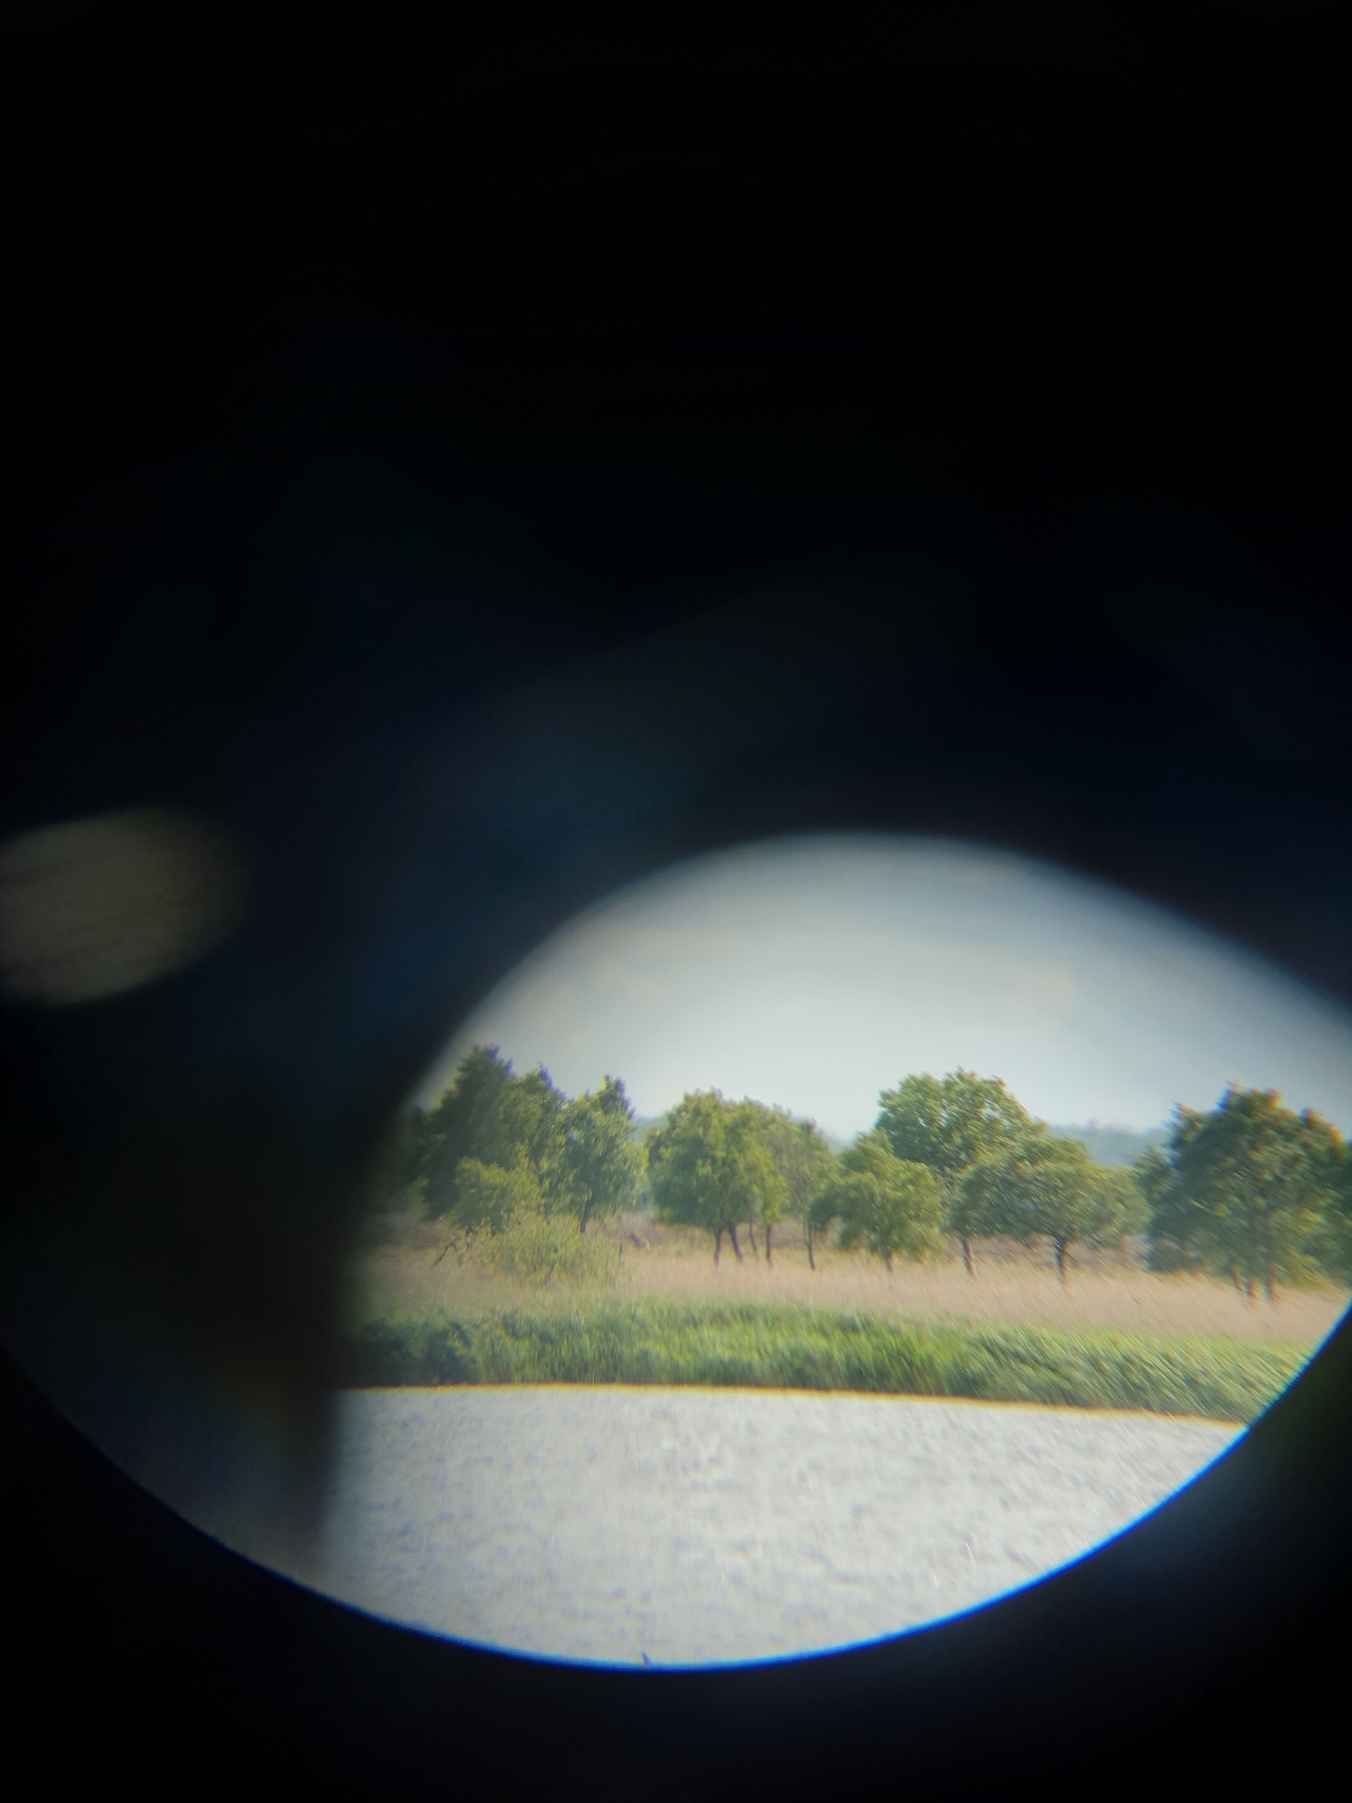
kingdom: Animalia
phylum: Chordata
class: Mammalia
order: Carnivora
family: Canidae
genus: Canis
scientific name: Canis lupus
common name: Ulv
